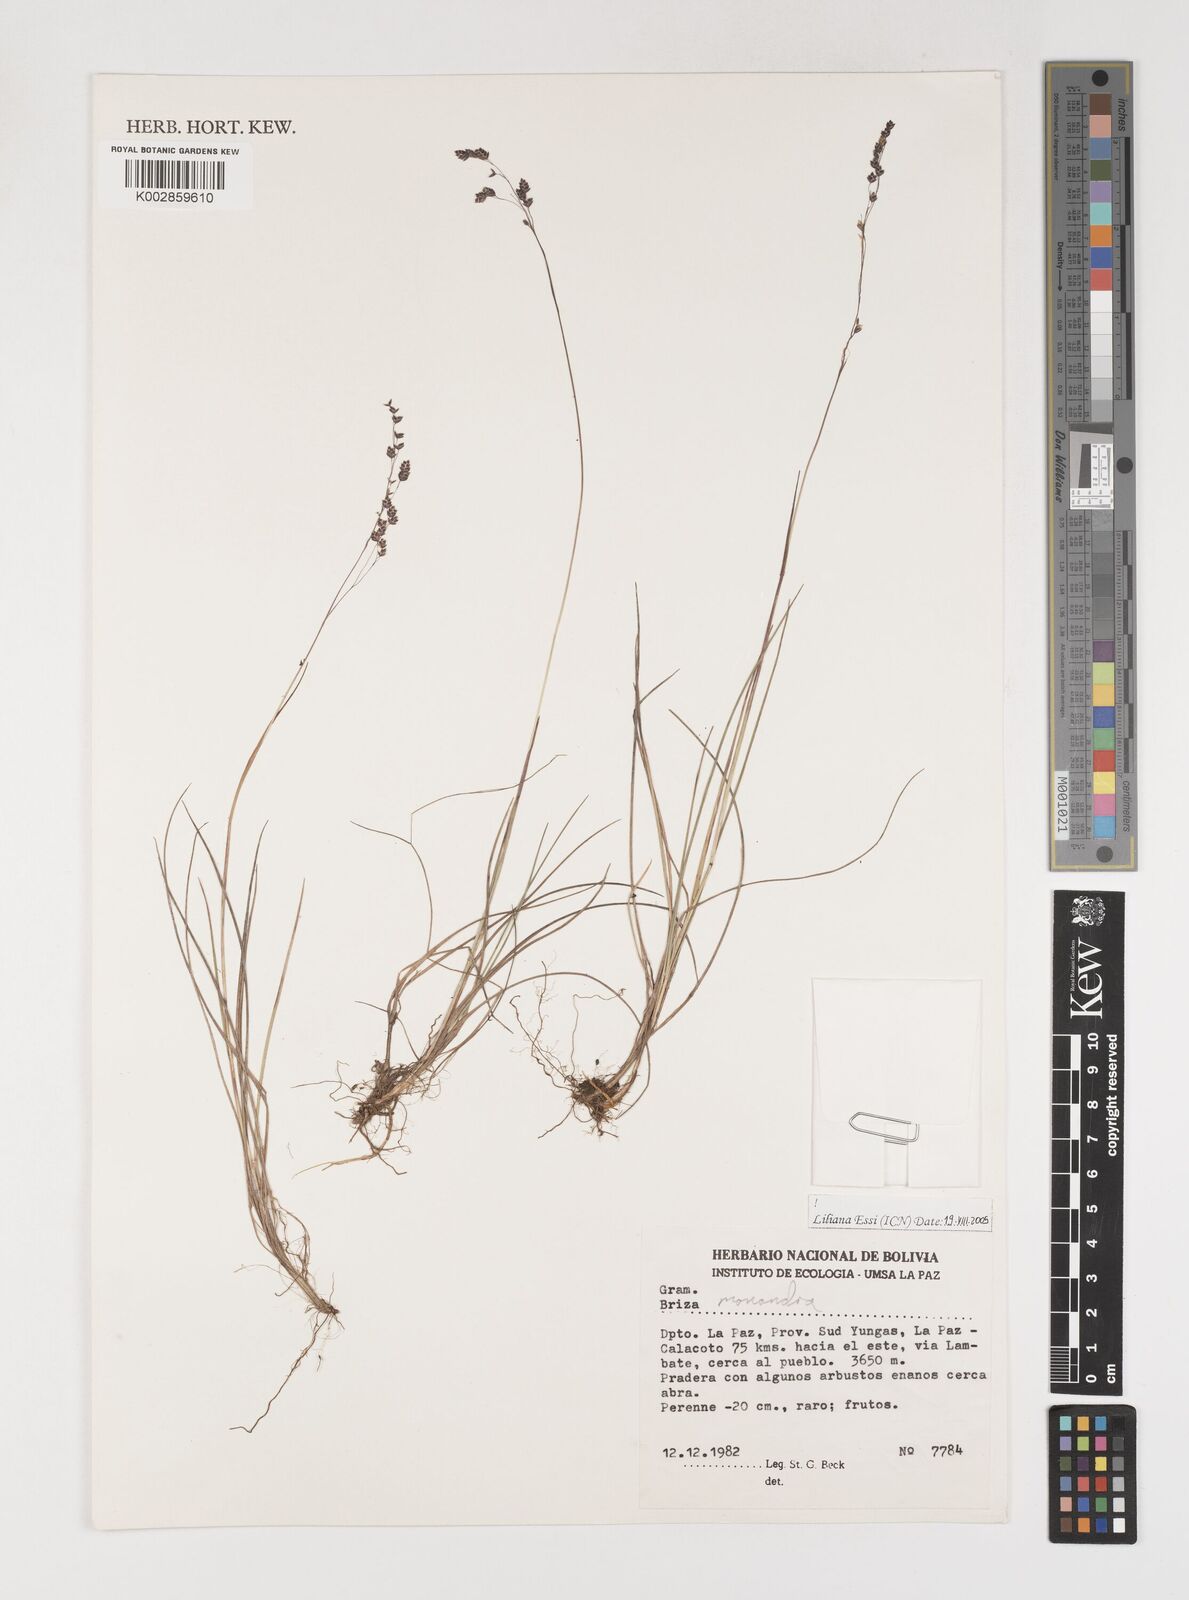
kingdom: Plantae
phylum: Tracheophyta
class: Liliopsida
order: Poales
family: Poaceae
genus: Poidium
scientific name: Poidium monandrum
